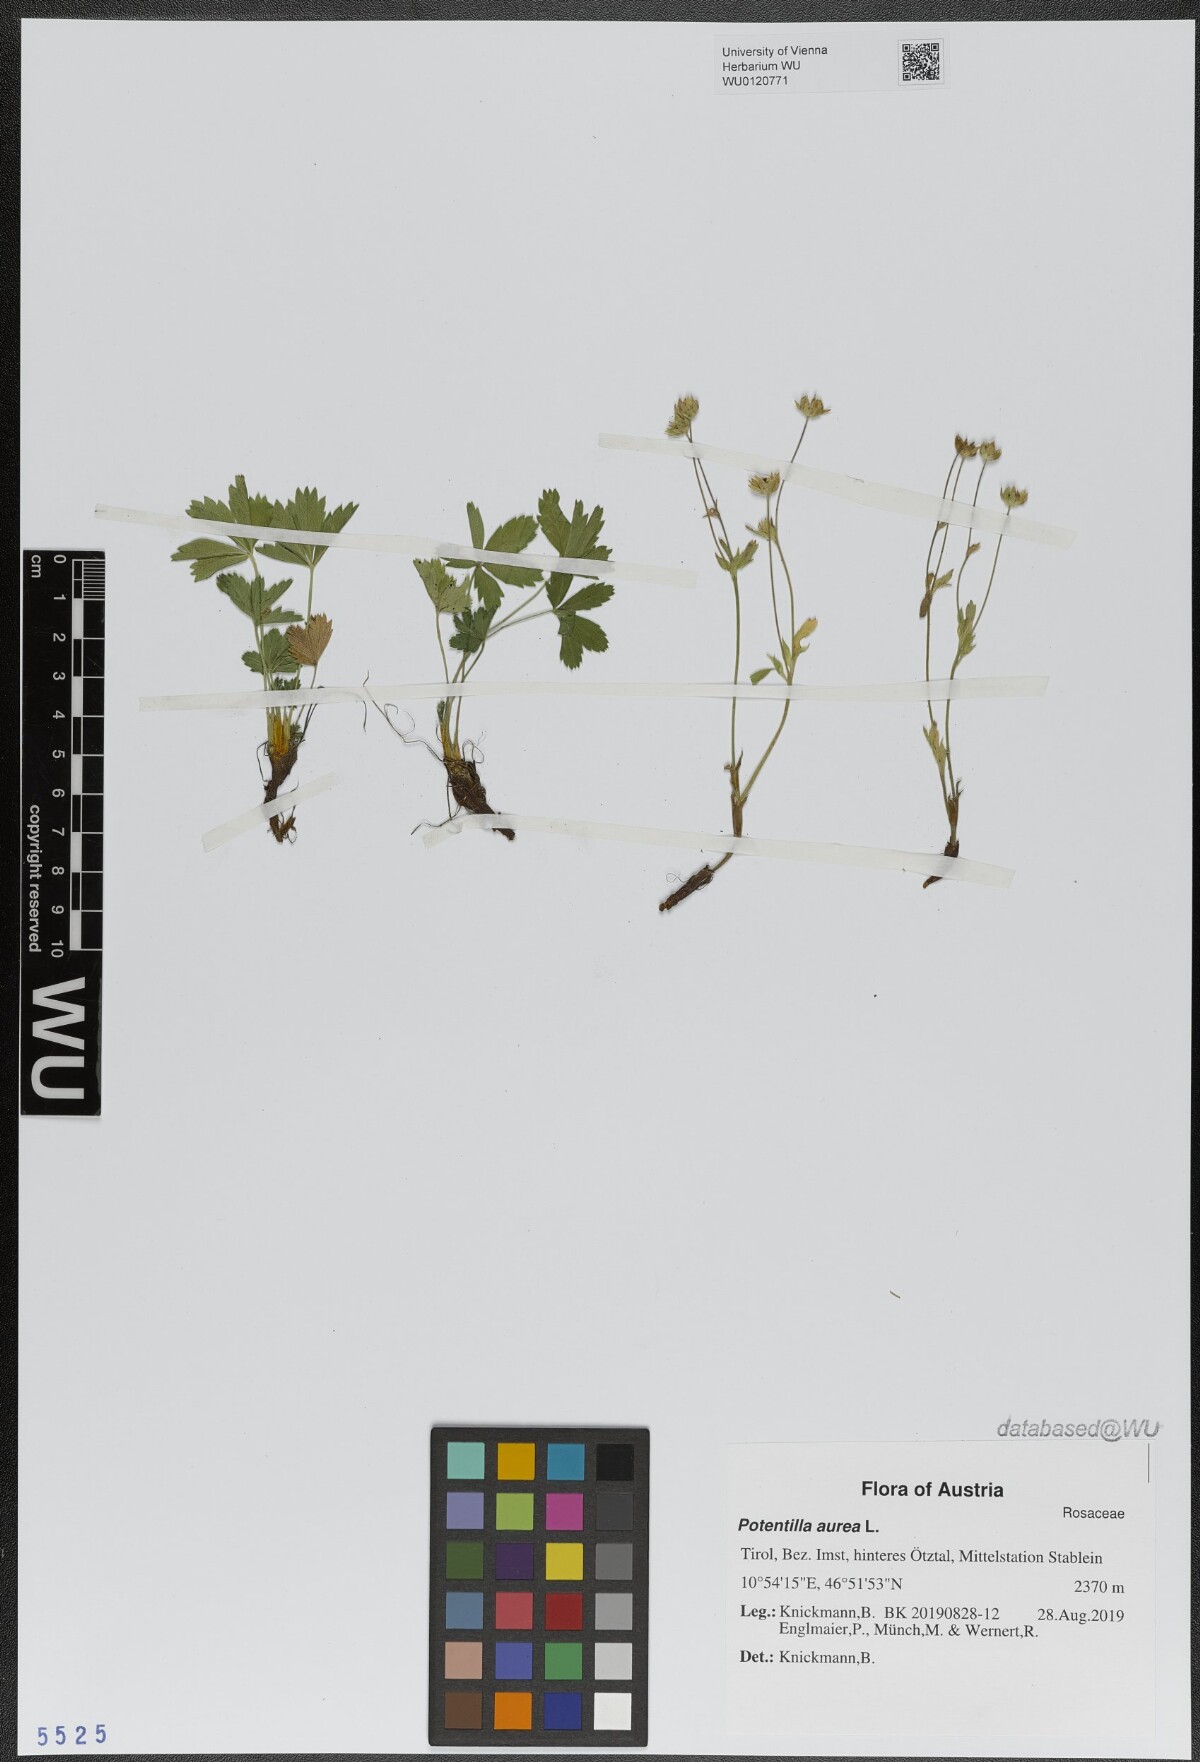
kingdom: Plantae
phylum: Tracheophyta
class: Magnoliopsida
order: Rosales
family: Rosaceae
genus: Potentilla
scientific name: Potentilla aurea
